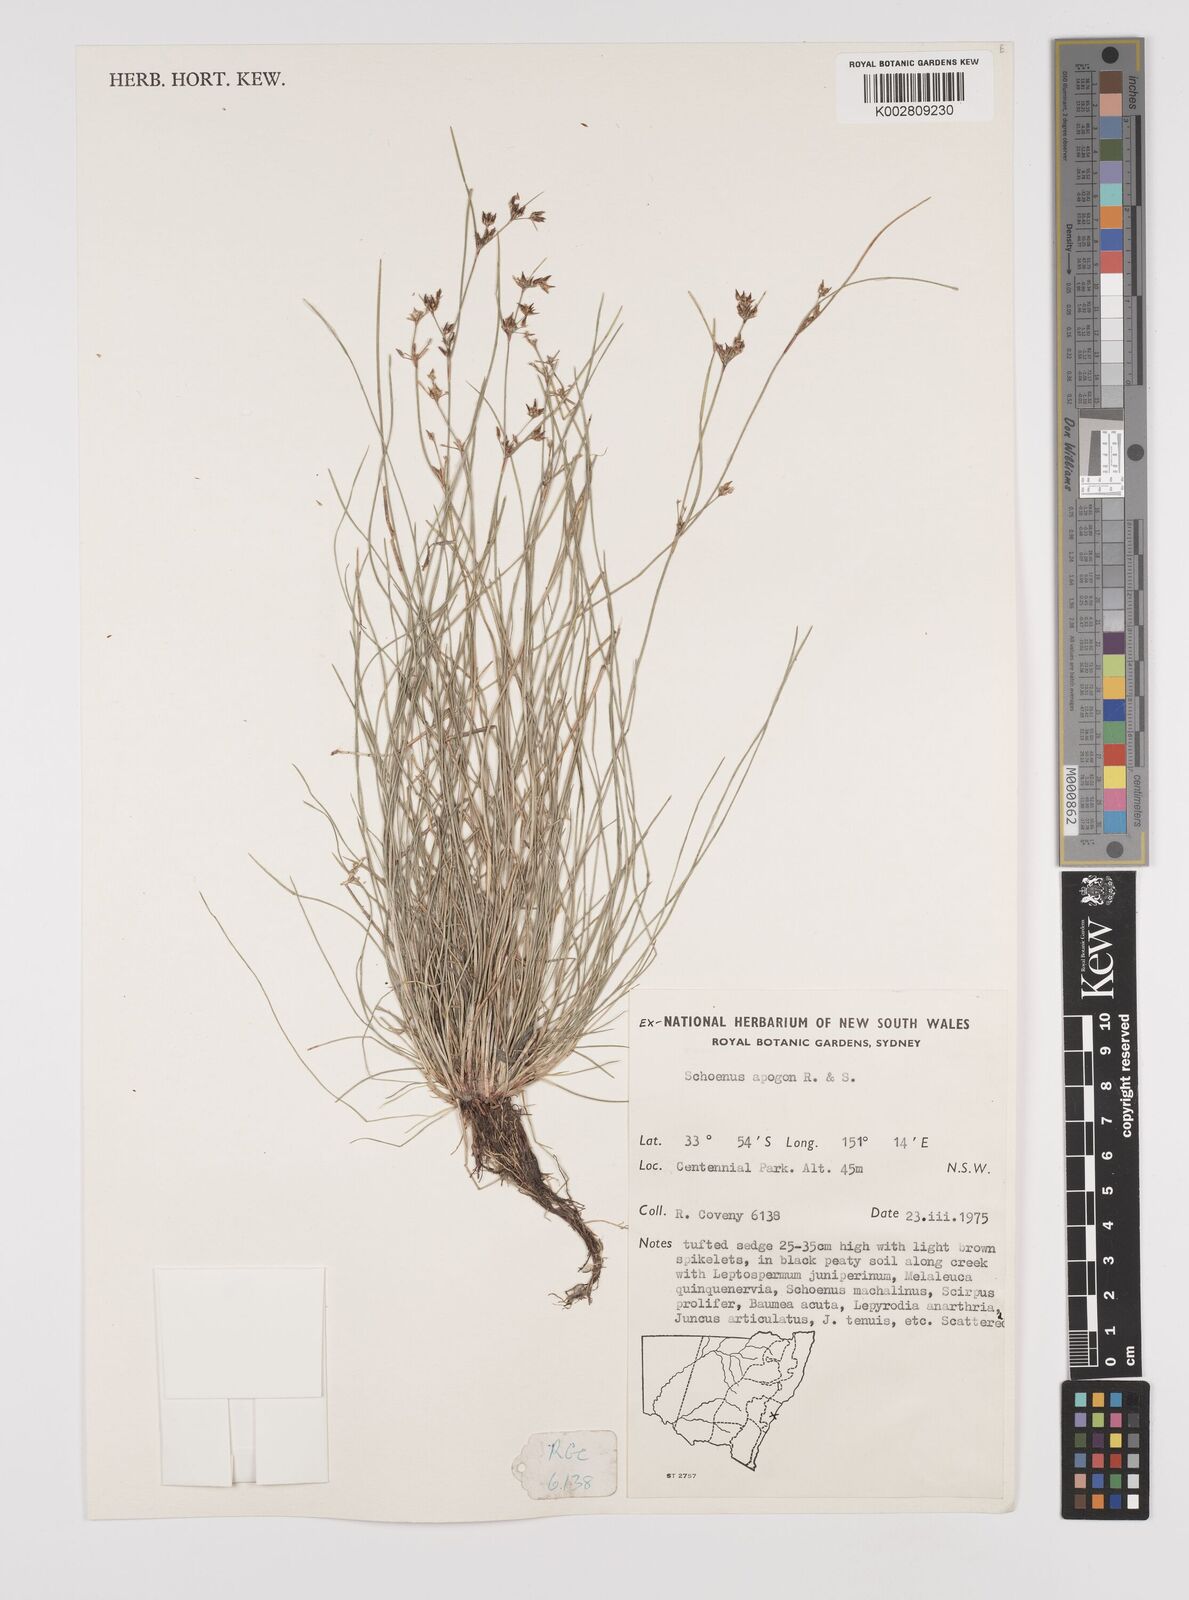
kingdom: Plantae
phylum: Tracheophyta
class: Liliopsida
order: Poales
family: Cyperaceae
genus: Schoenus
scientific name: Schoenus apogon
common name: Smooth bogrush
